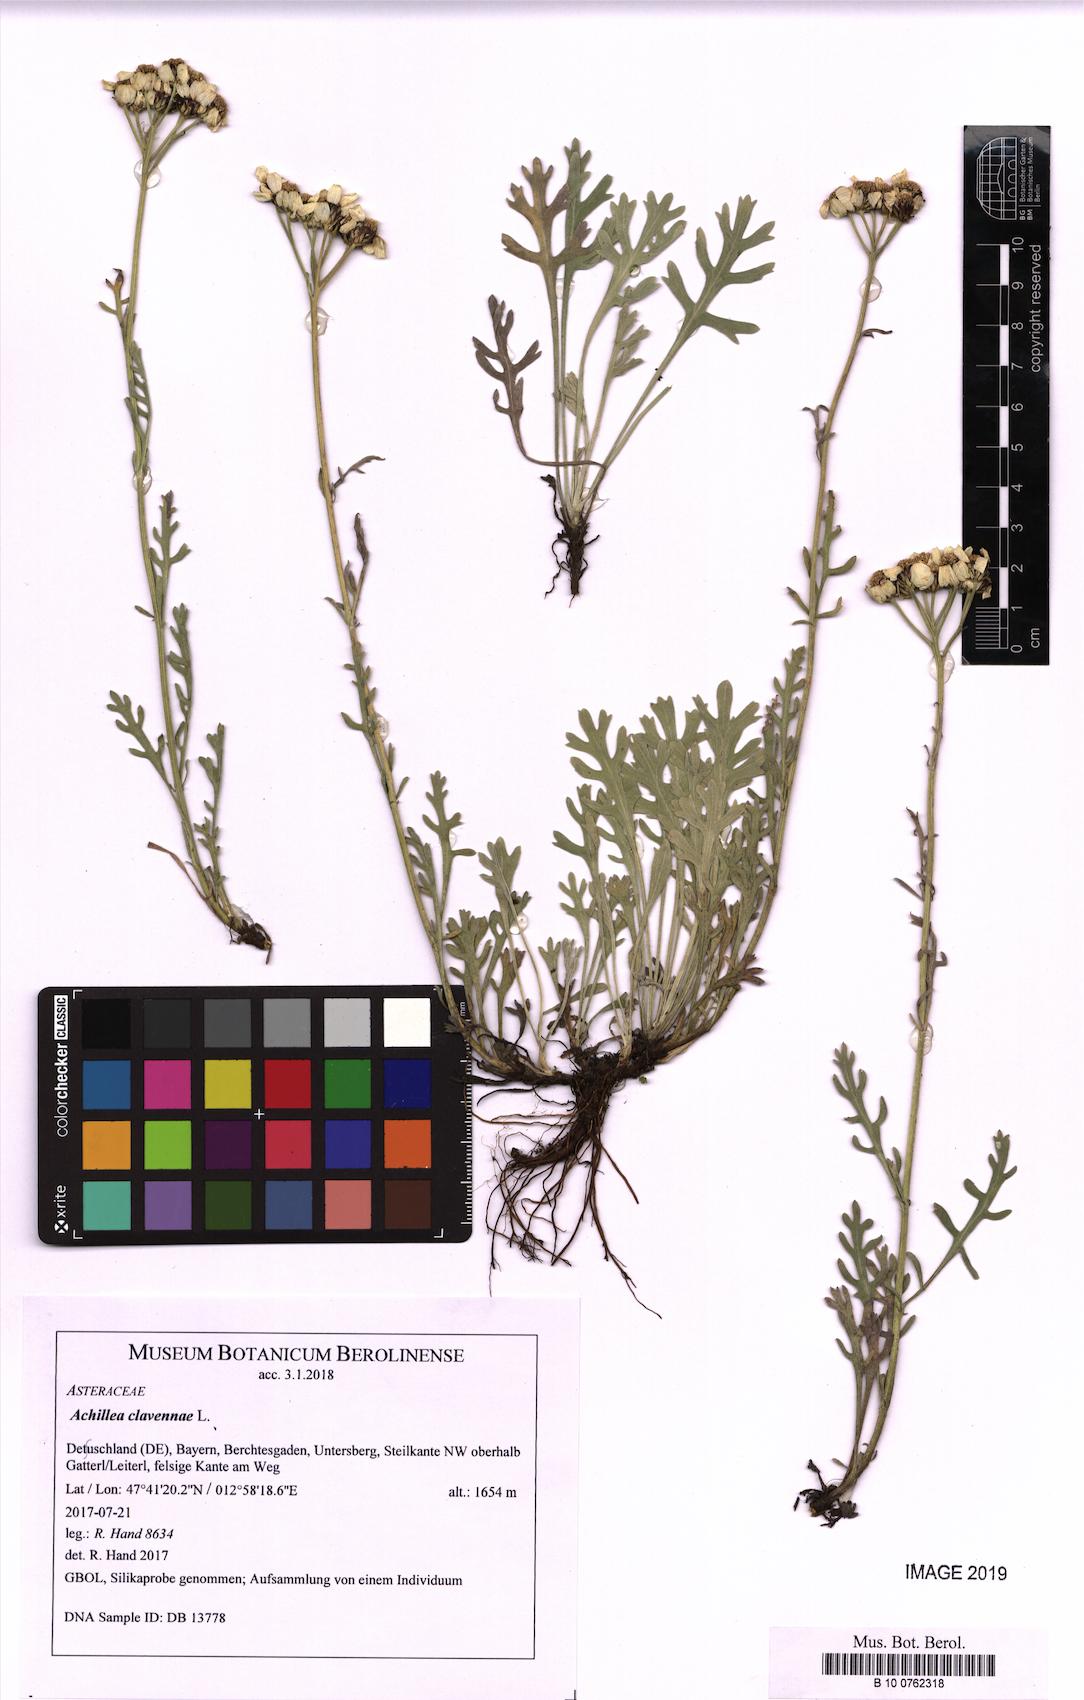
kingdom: Plantae
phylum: Tracheophyta
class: Magnoliopsida
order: Asterales
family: Asteraceae
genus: Achillea
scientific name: Achillea clavennae
